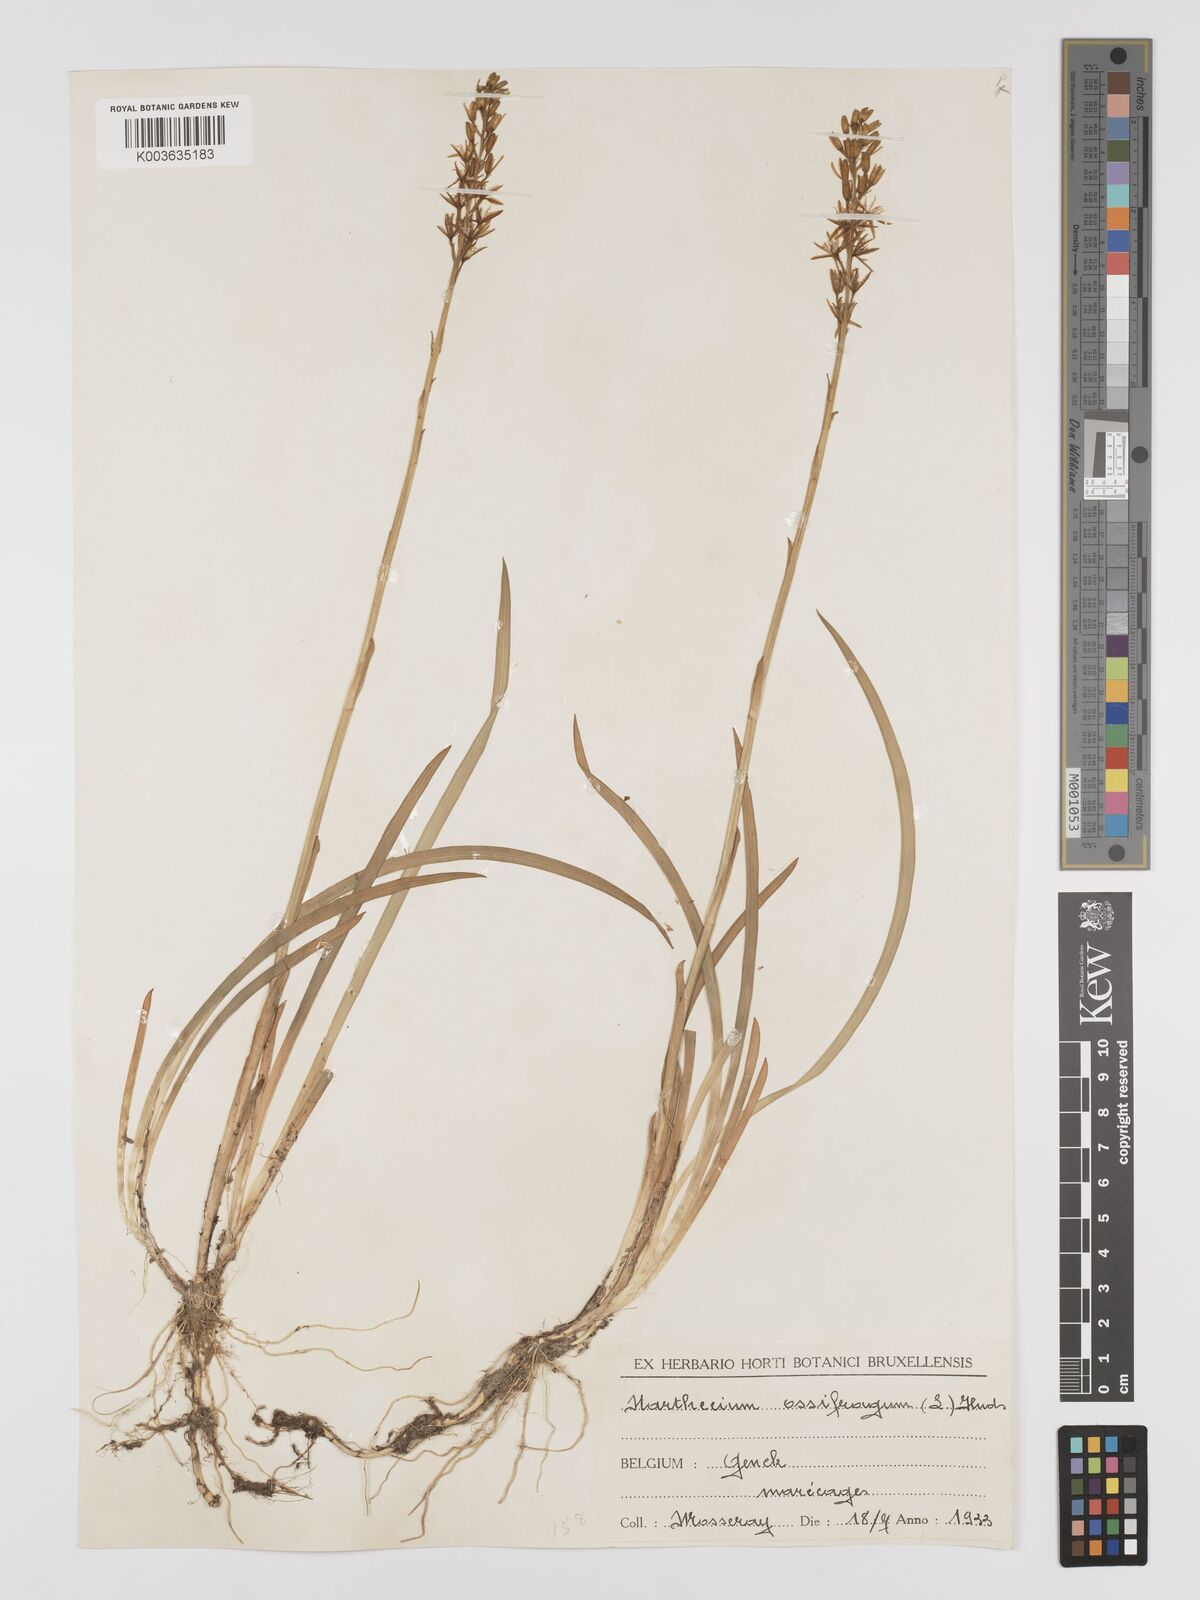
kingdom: Plantae
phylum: Tracheophyta
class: Liliopsida
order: Dioscoreales
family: Nartheciaceae
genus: Narthecium
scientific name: Narthecium ossifragum
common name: Bog asphodel
